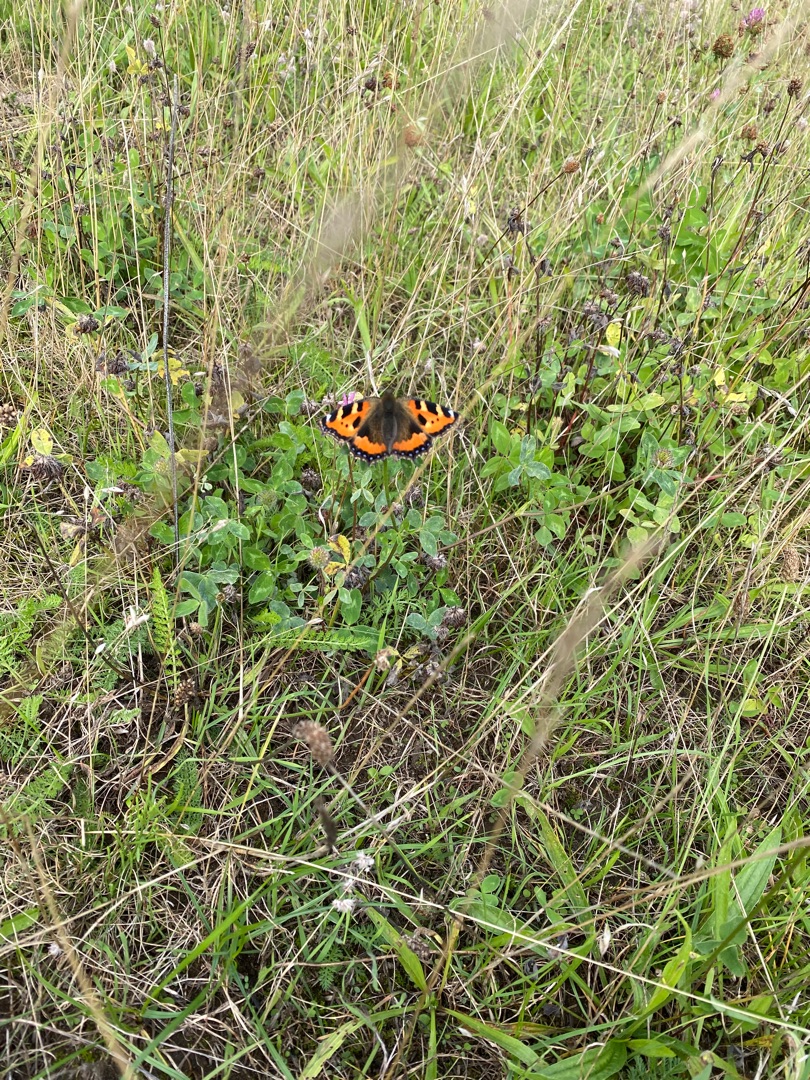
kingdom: Animalia
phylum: Arthropoda
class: Insecta
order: Lepidoptera
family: Nymphalidae
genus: Aglais
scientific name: Aglais urticae
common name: Nældens takvinge
